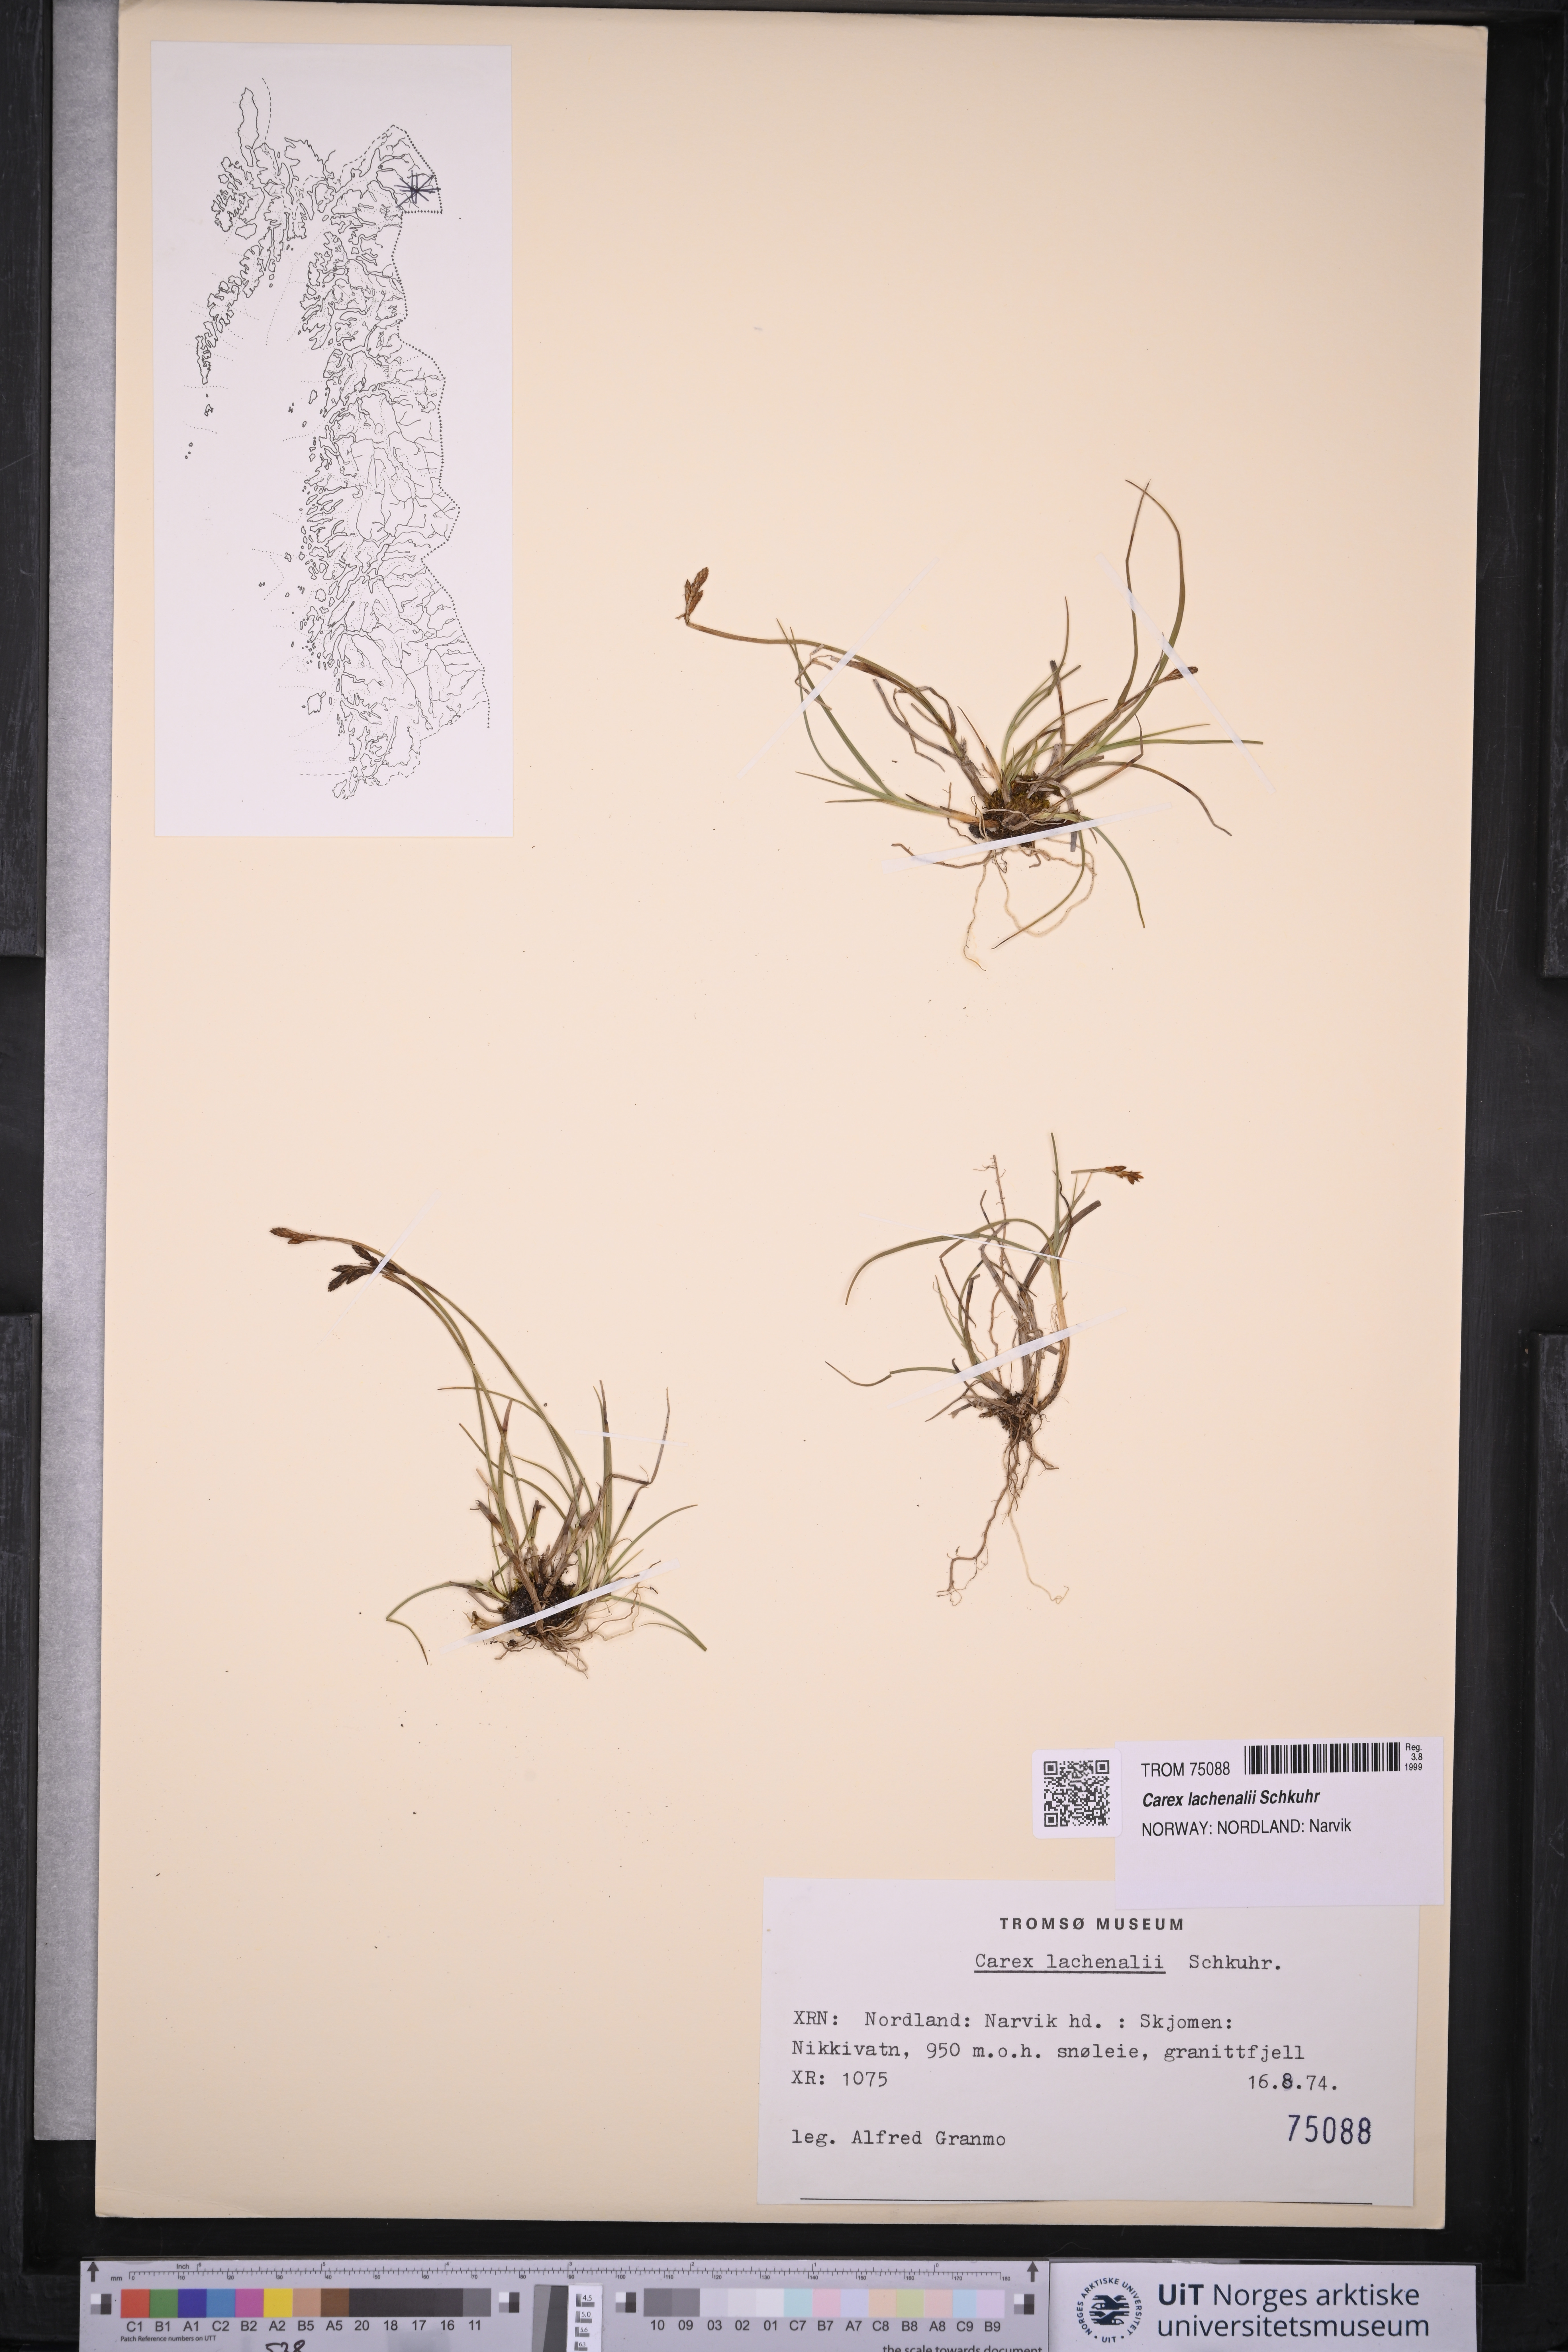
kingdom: Plantae
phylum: Tracheophyta
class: Liliopsida
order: Poales
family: Cyperaceae
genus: Carex
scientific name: Carex lachenalii
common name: Hare's-foot sedge
